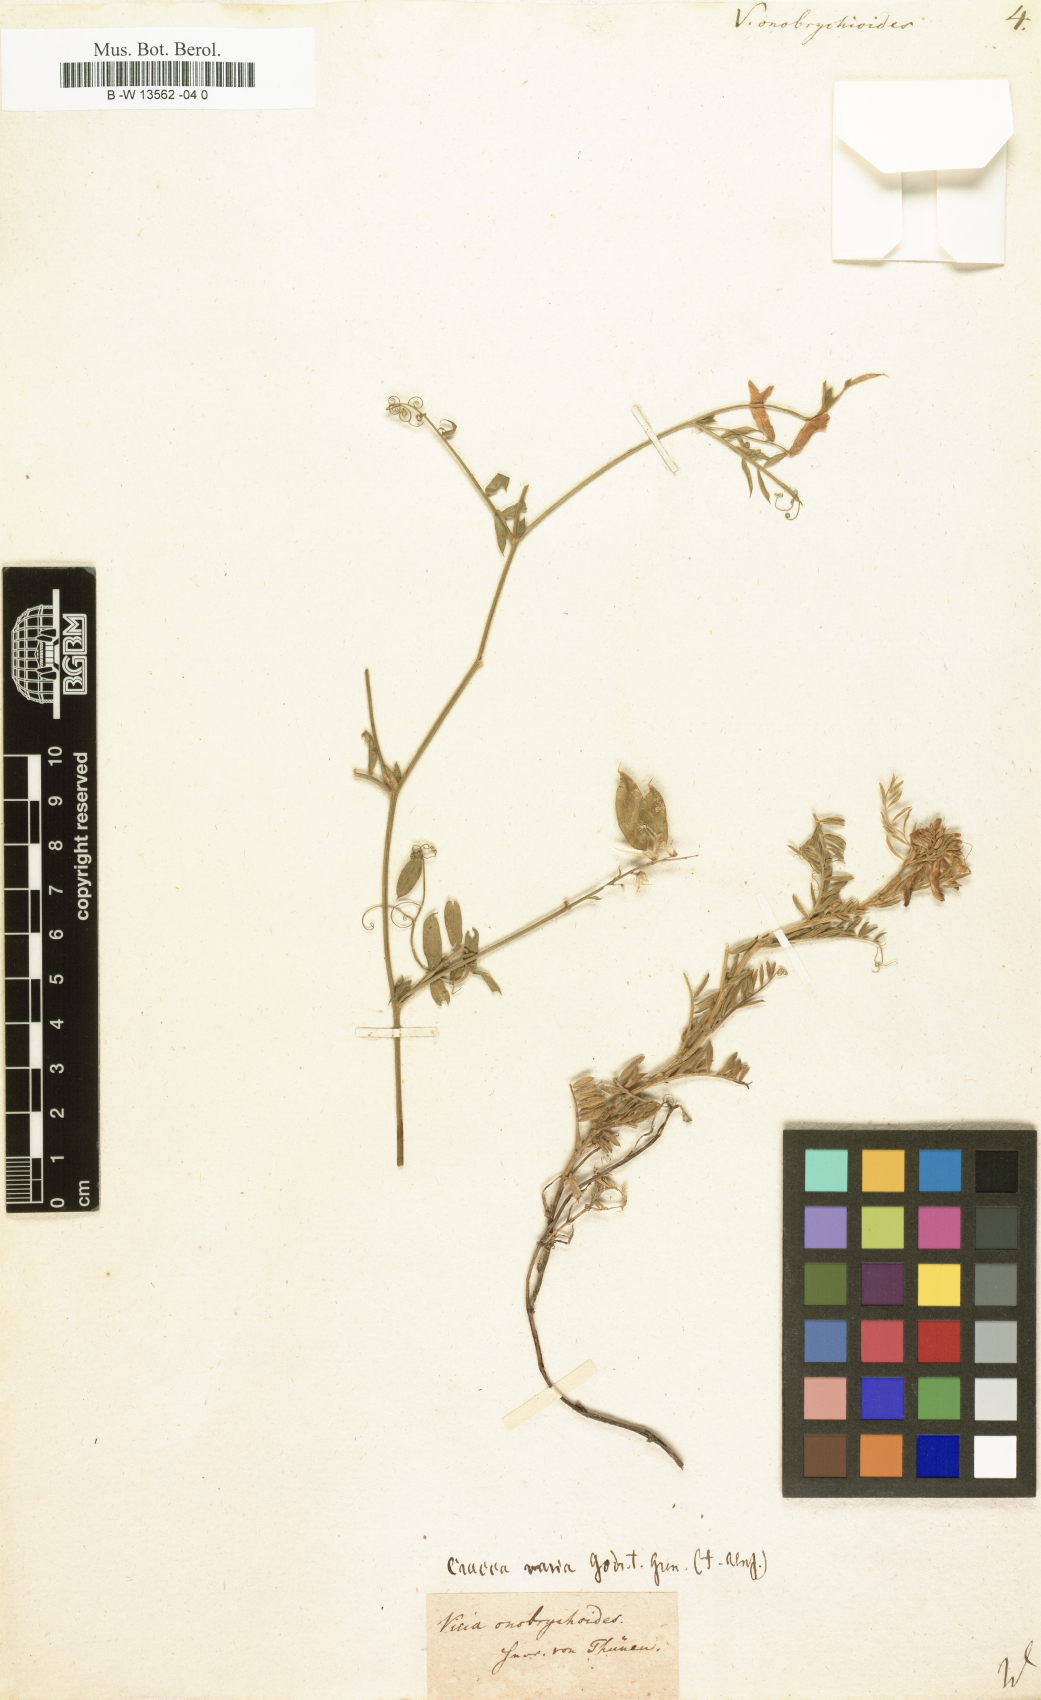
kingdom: Plantae
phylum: Tracheophyta
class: Magnoliopsida
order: Fabales
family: Fabaceae
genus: Vicia
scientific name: Vicia onobrychioides
